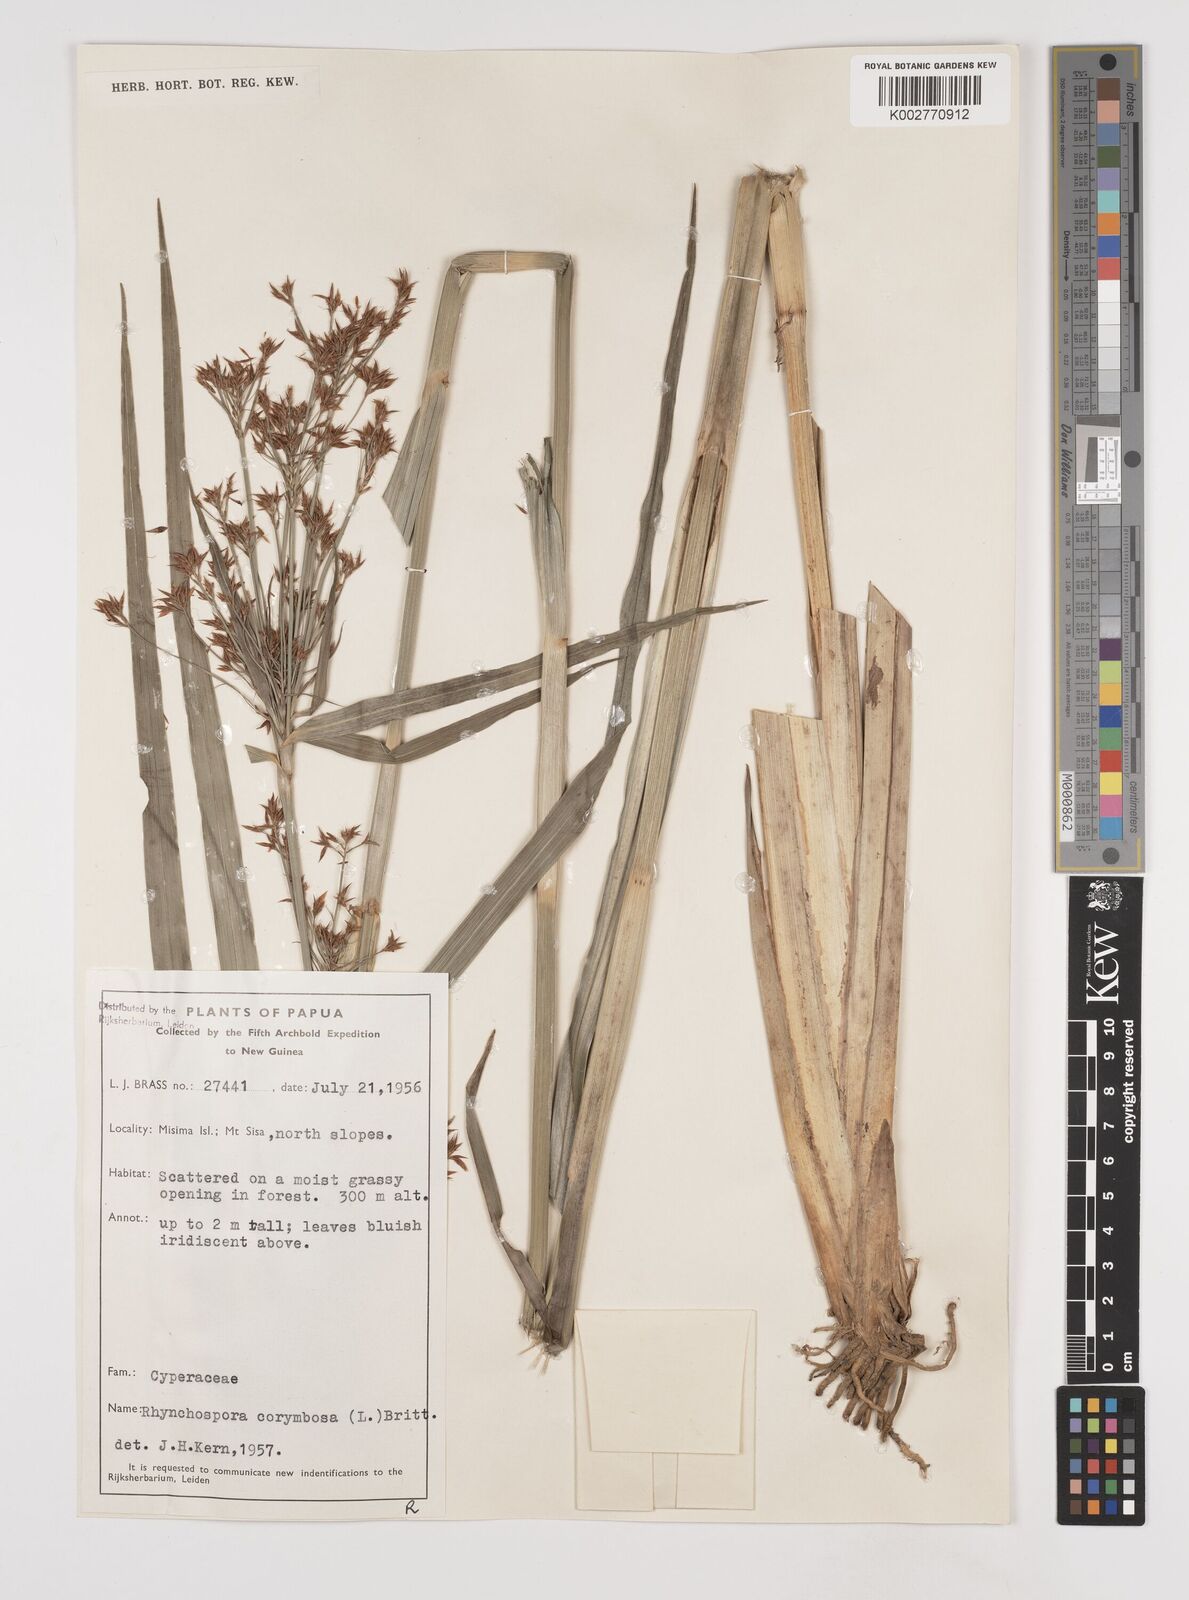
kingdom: Plantae
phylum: Tracheophyta
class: Liliopsida
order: Poales
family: Cyperaceae
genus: Rhynchospora
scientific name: Rhynchospora corymbosa
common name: Golden beak sedge
